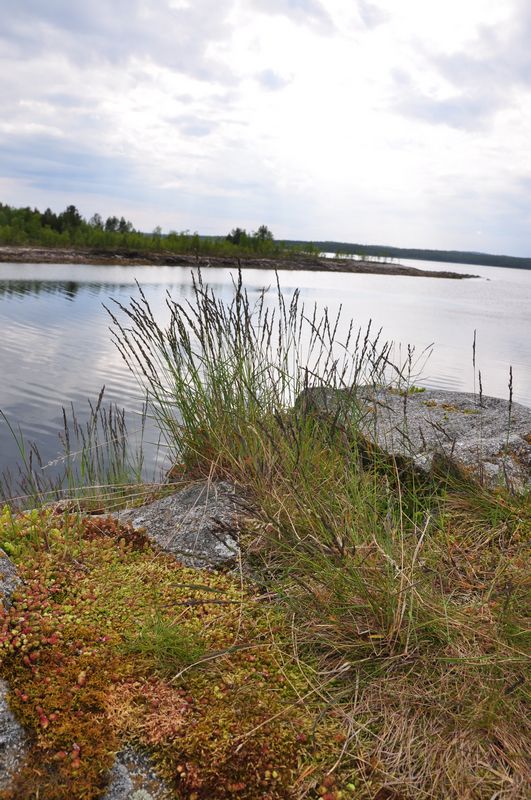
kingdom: Plantae
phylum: Tracheophyta
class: Liliopsida
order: Poales
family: Poaceae
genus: Poa
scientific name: Poa glauca
